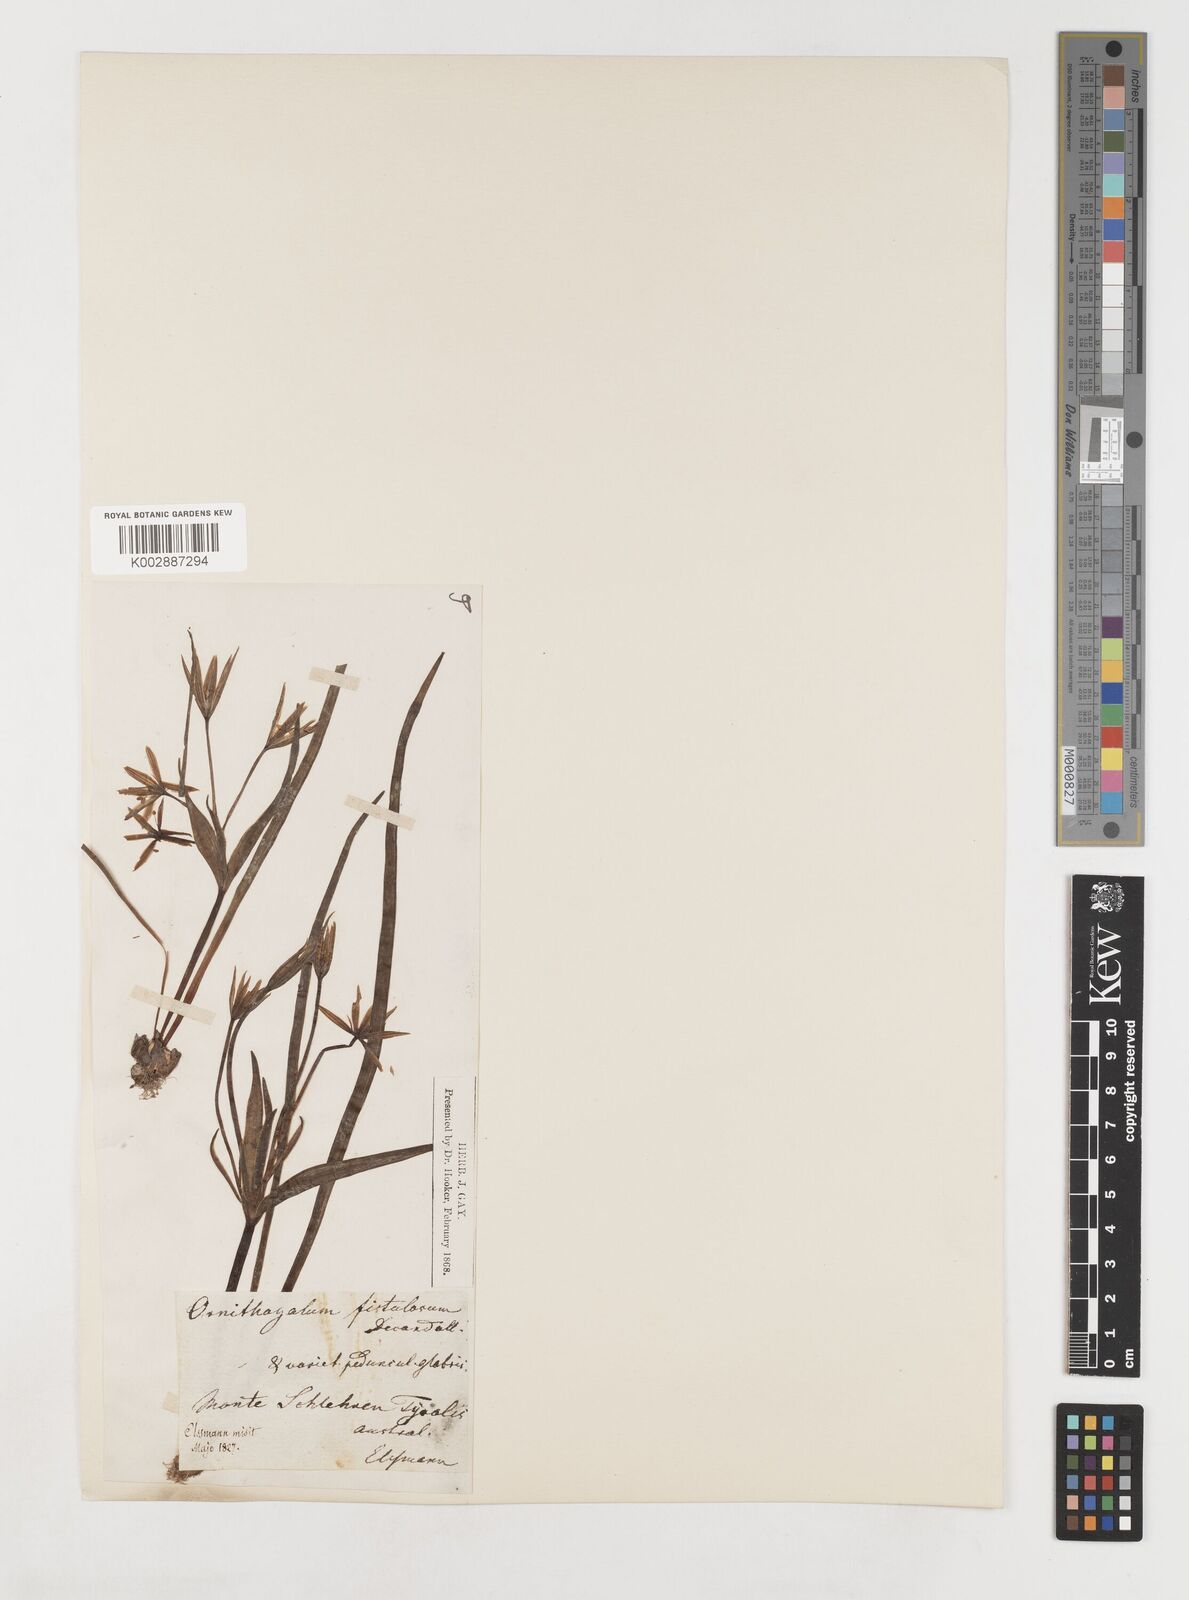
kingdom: Plantae
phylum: Tracheophyta
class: Liliopsida
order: Liliales
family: Liliaceae
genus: Gagea
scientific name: Gagea bohemica
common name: Early star-of-bethlehem
